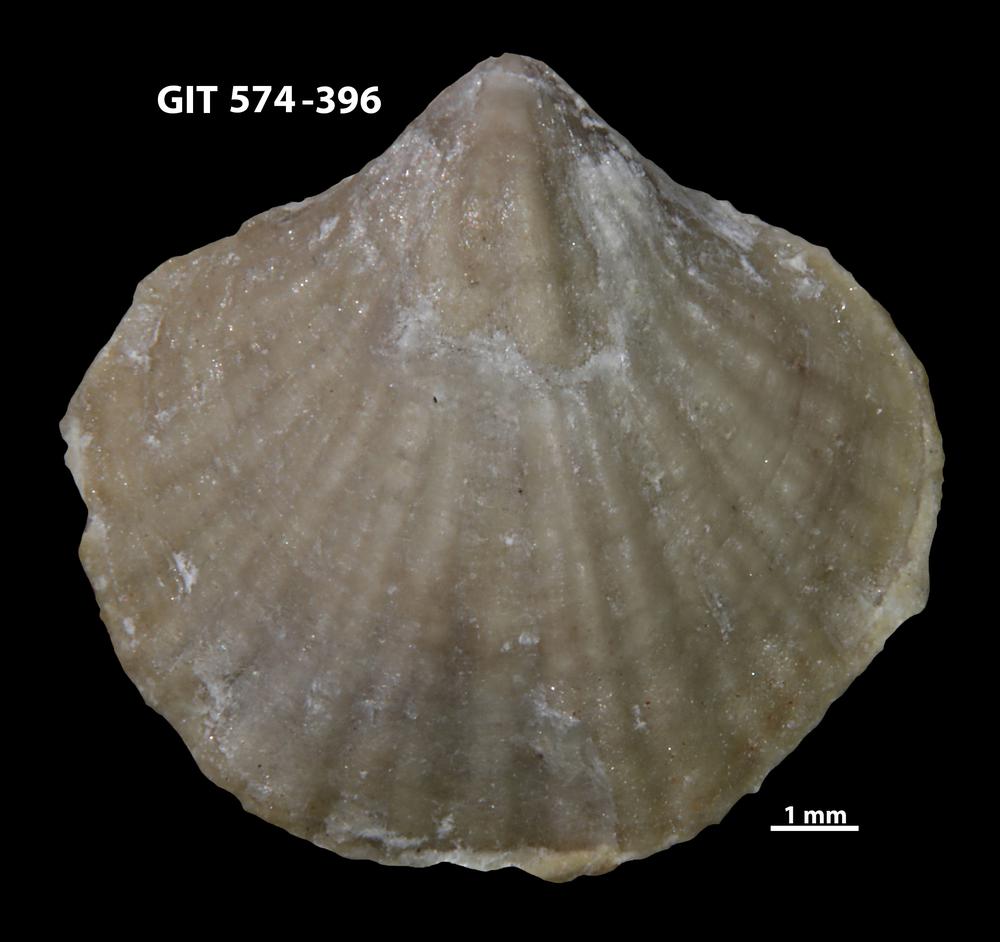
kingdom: Animalia
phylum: Brachiopoda
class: Rhynchonellata
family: Atrypinidae
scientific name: Atrypinidae
